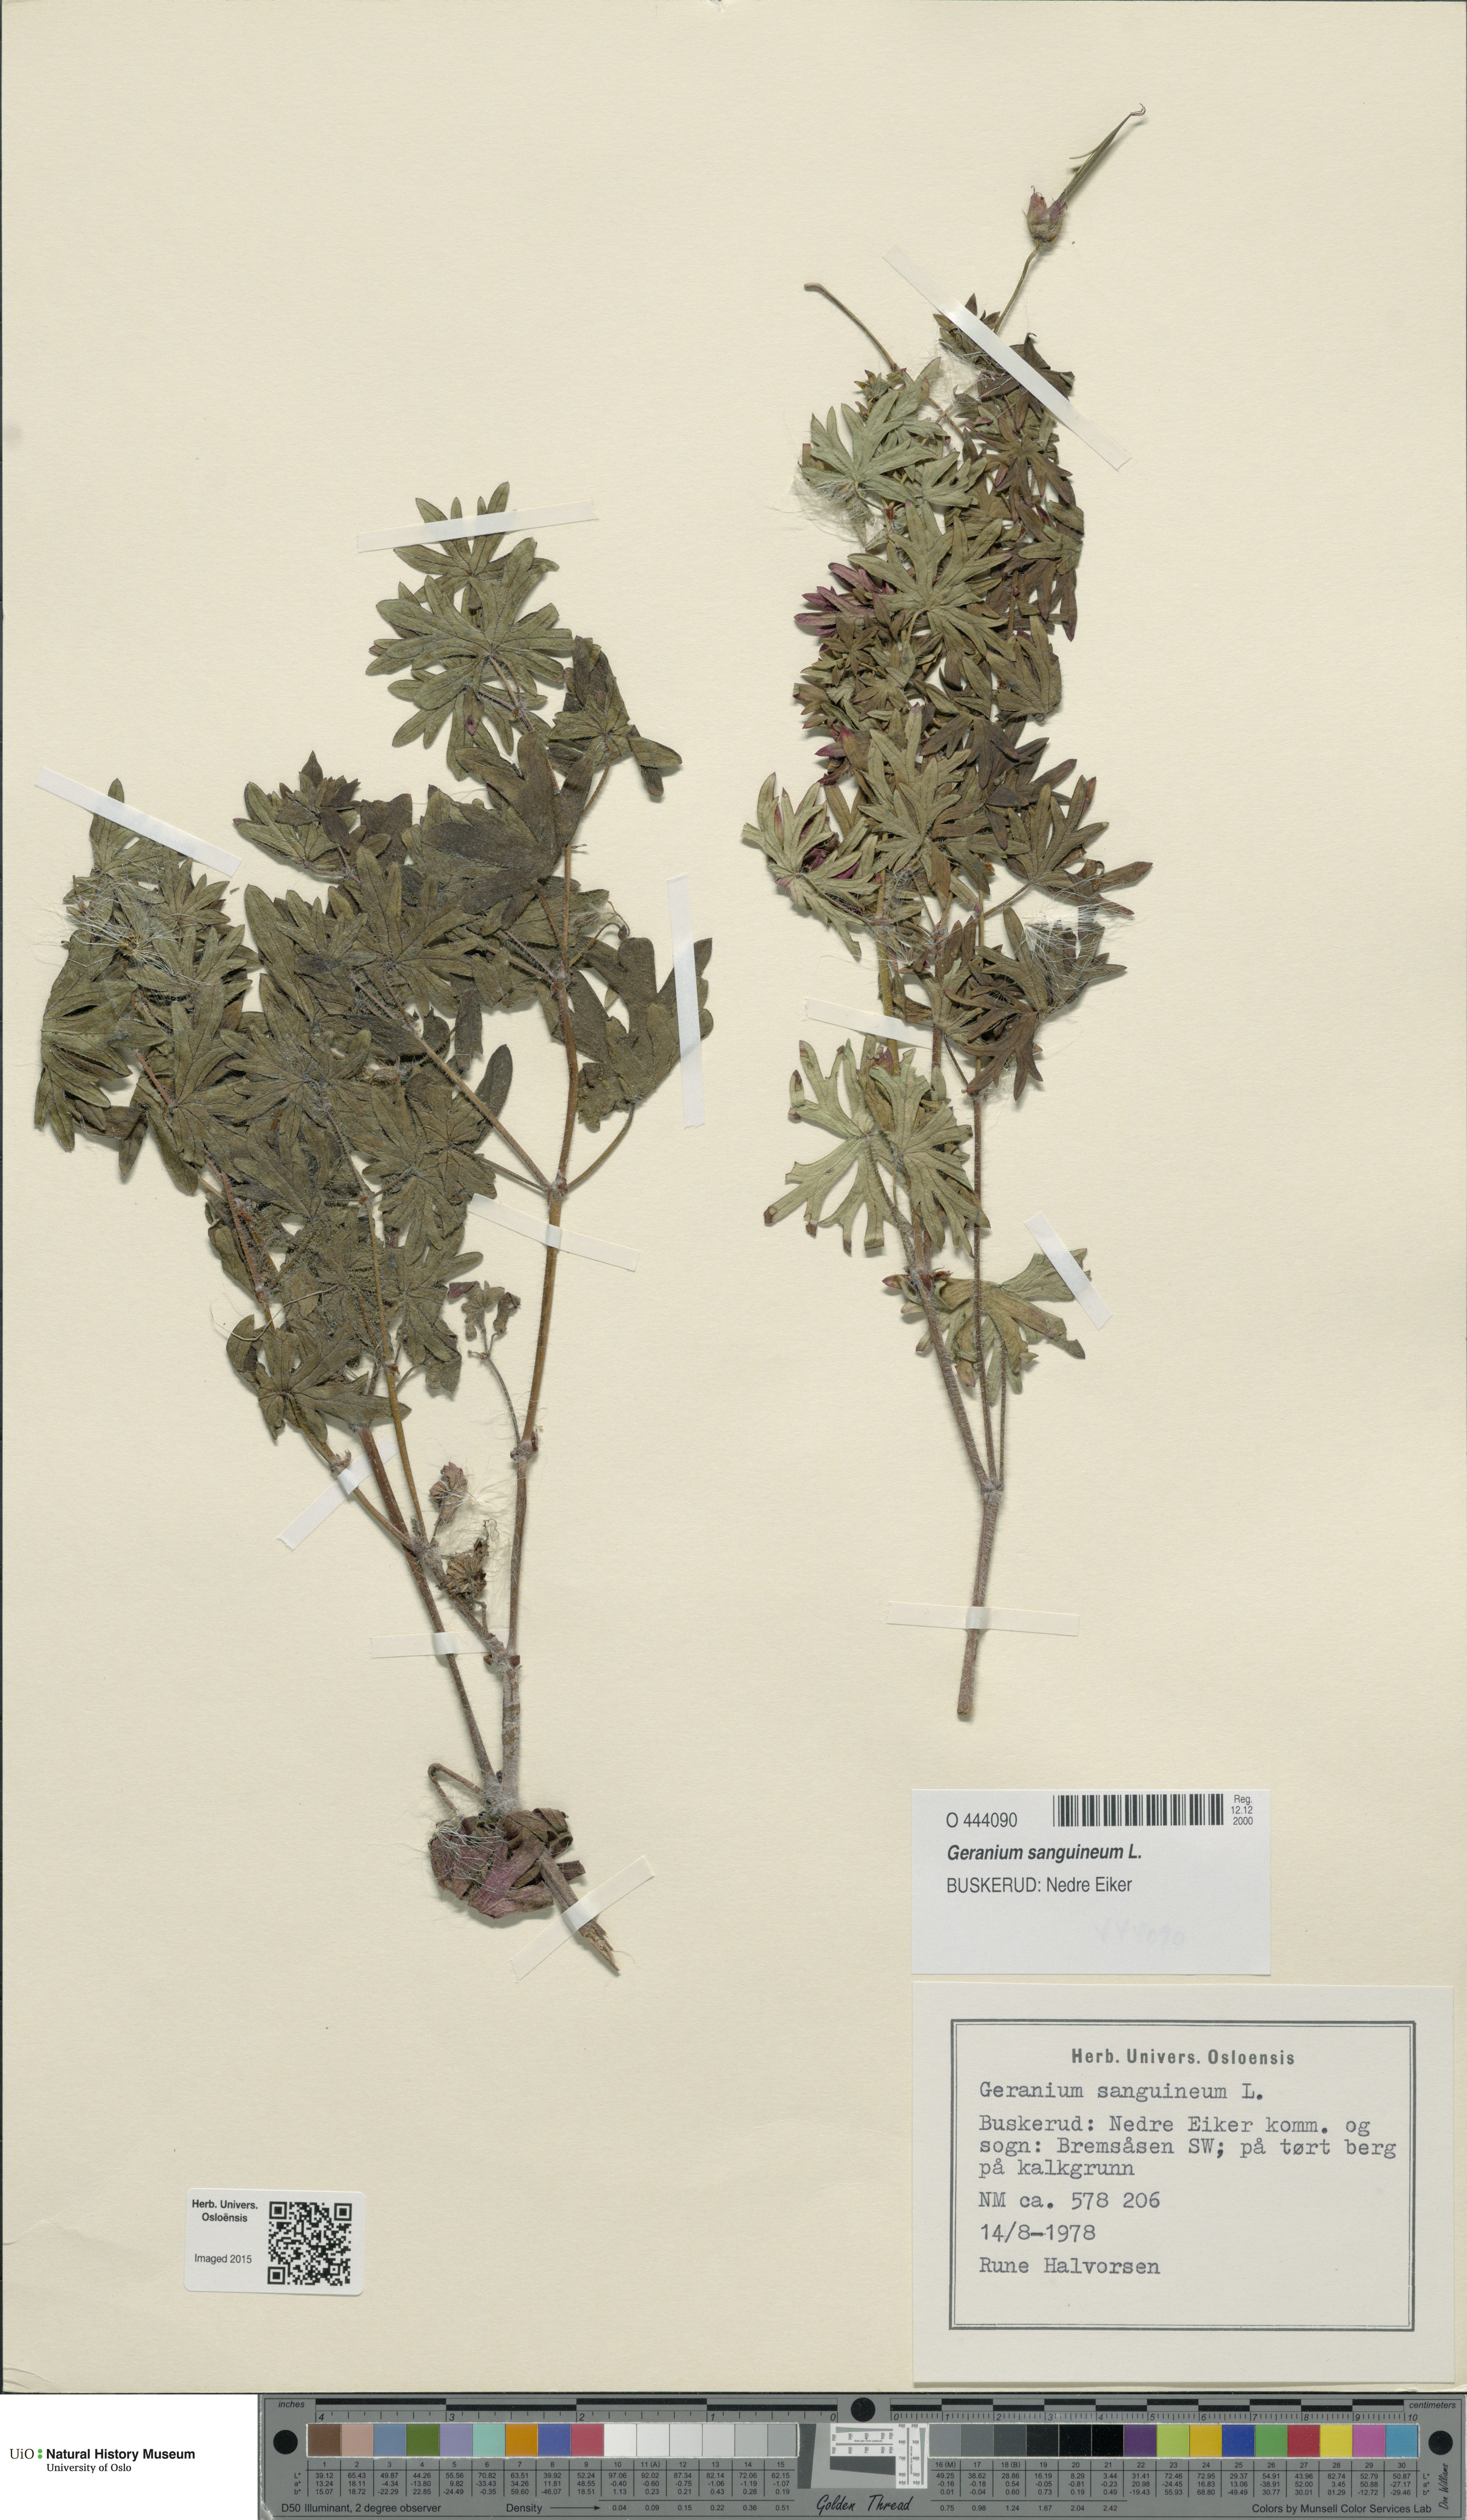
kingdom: Plantae
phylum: Tracheophyta
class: Magnoliopsida
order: Geraniales
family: Geraniaceae
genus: Geranium
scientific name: Geranium sanguineum
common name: Bloody crane's-bill
